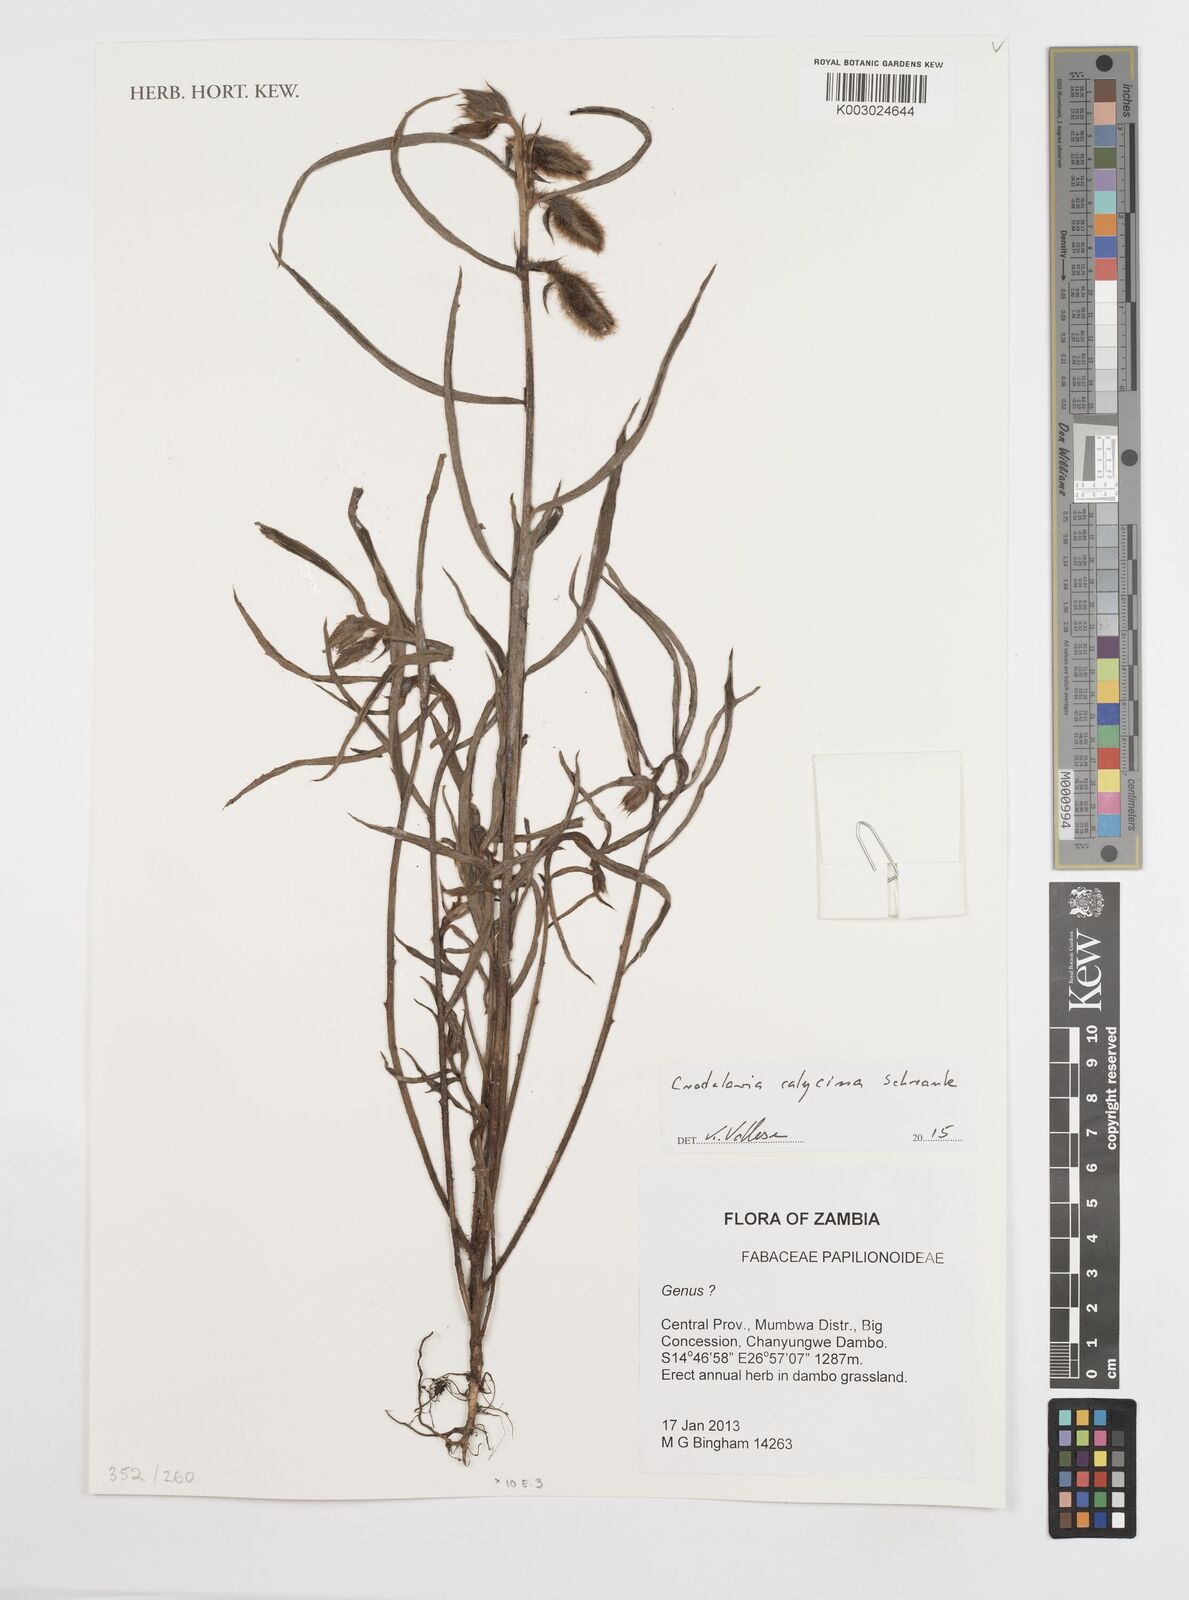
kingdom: Plantae
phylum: Tracheophyta
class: Magnoliopsida
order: Fabales
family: Fabaceae
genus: Crotalaria
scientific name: Crotalaria calycina
